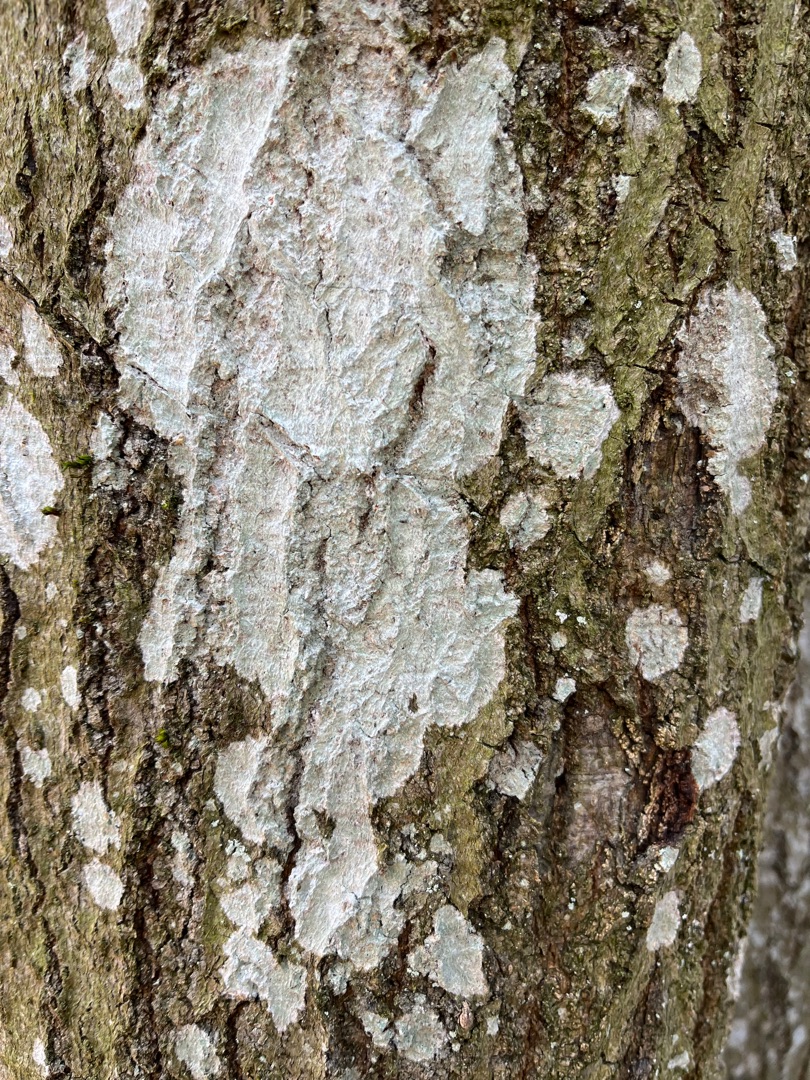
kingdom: Fungi
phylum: Ascomycota
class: Lecanoromycetes
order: Ostropales
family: Phlyctidaceae
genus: Phlyctis
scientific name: Phlyctis argena
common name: Almindelig sølvlav
